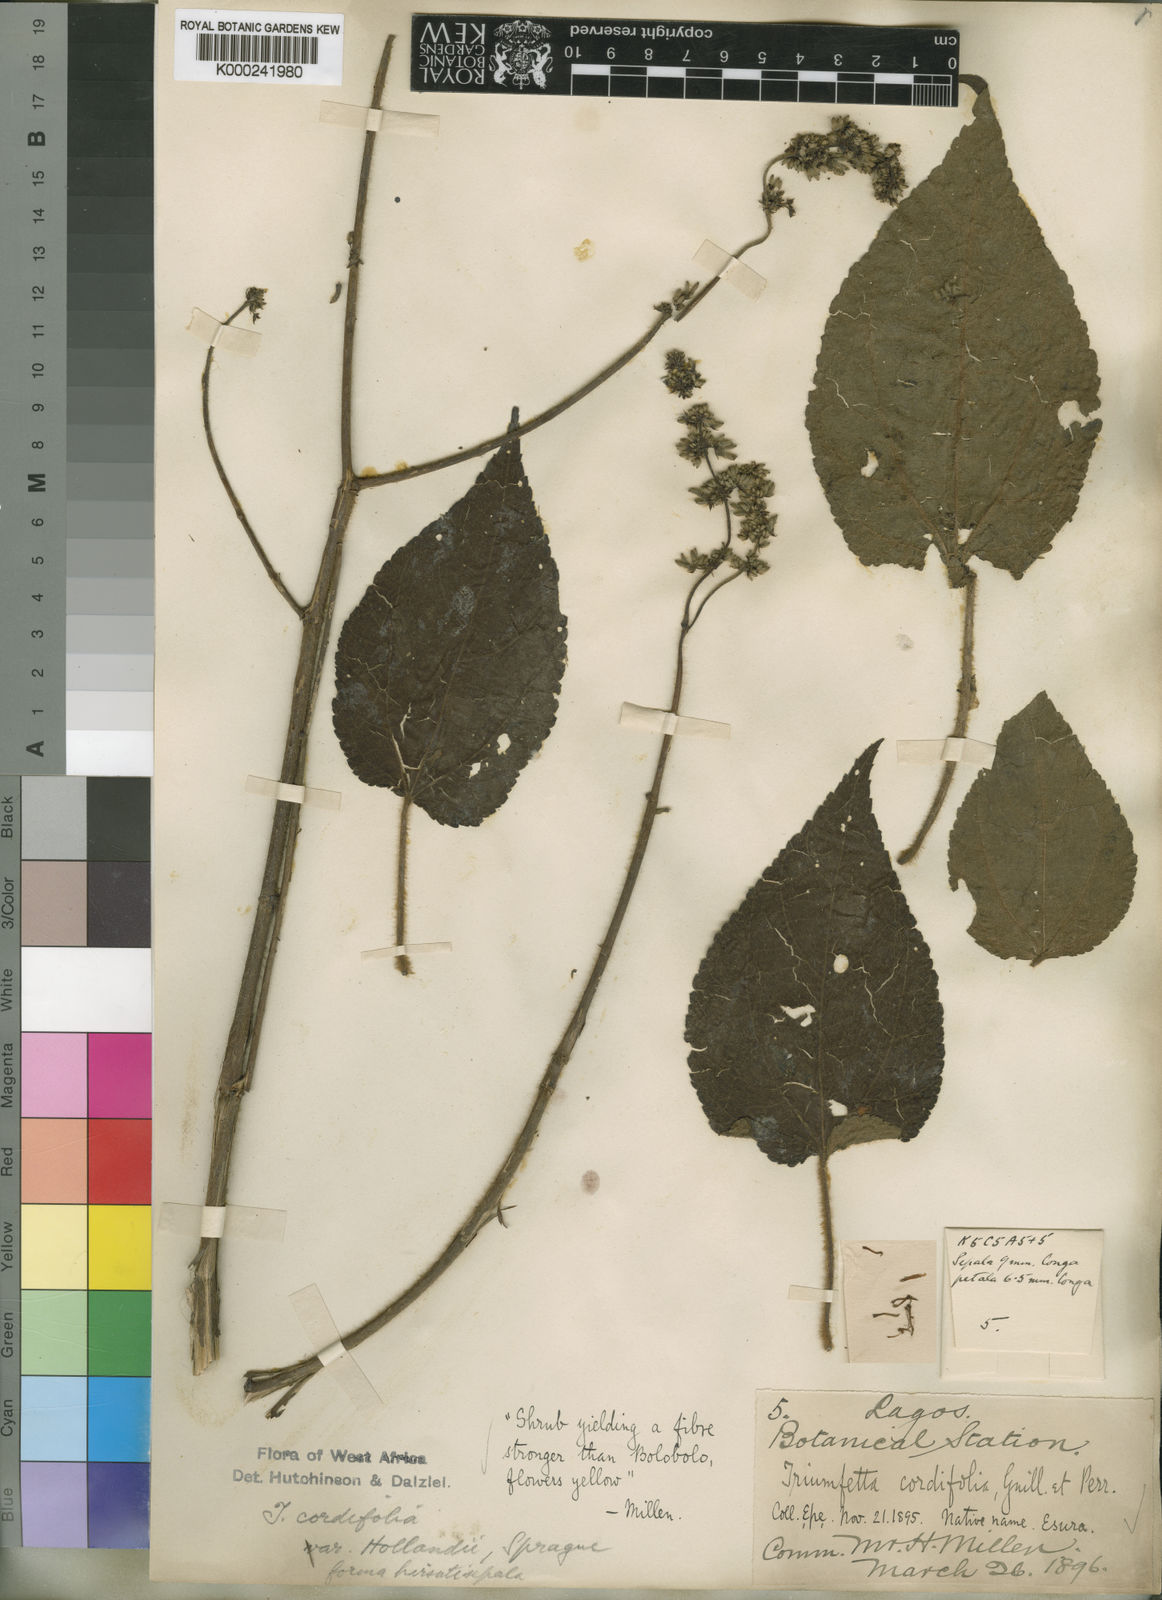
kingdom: Plantae
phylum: Tracheophyta
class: Magnoliopsida
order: Malvales
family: Malvaceae
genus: Triumfetta
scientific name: Triumfetta cordifolia
